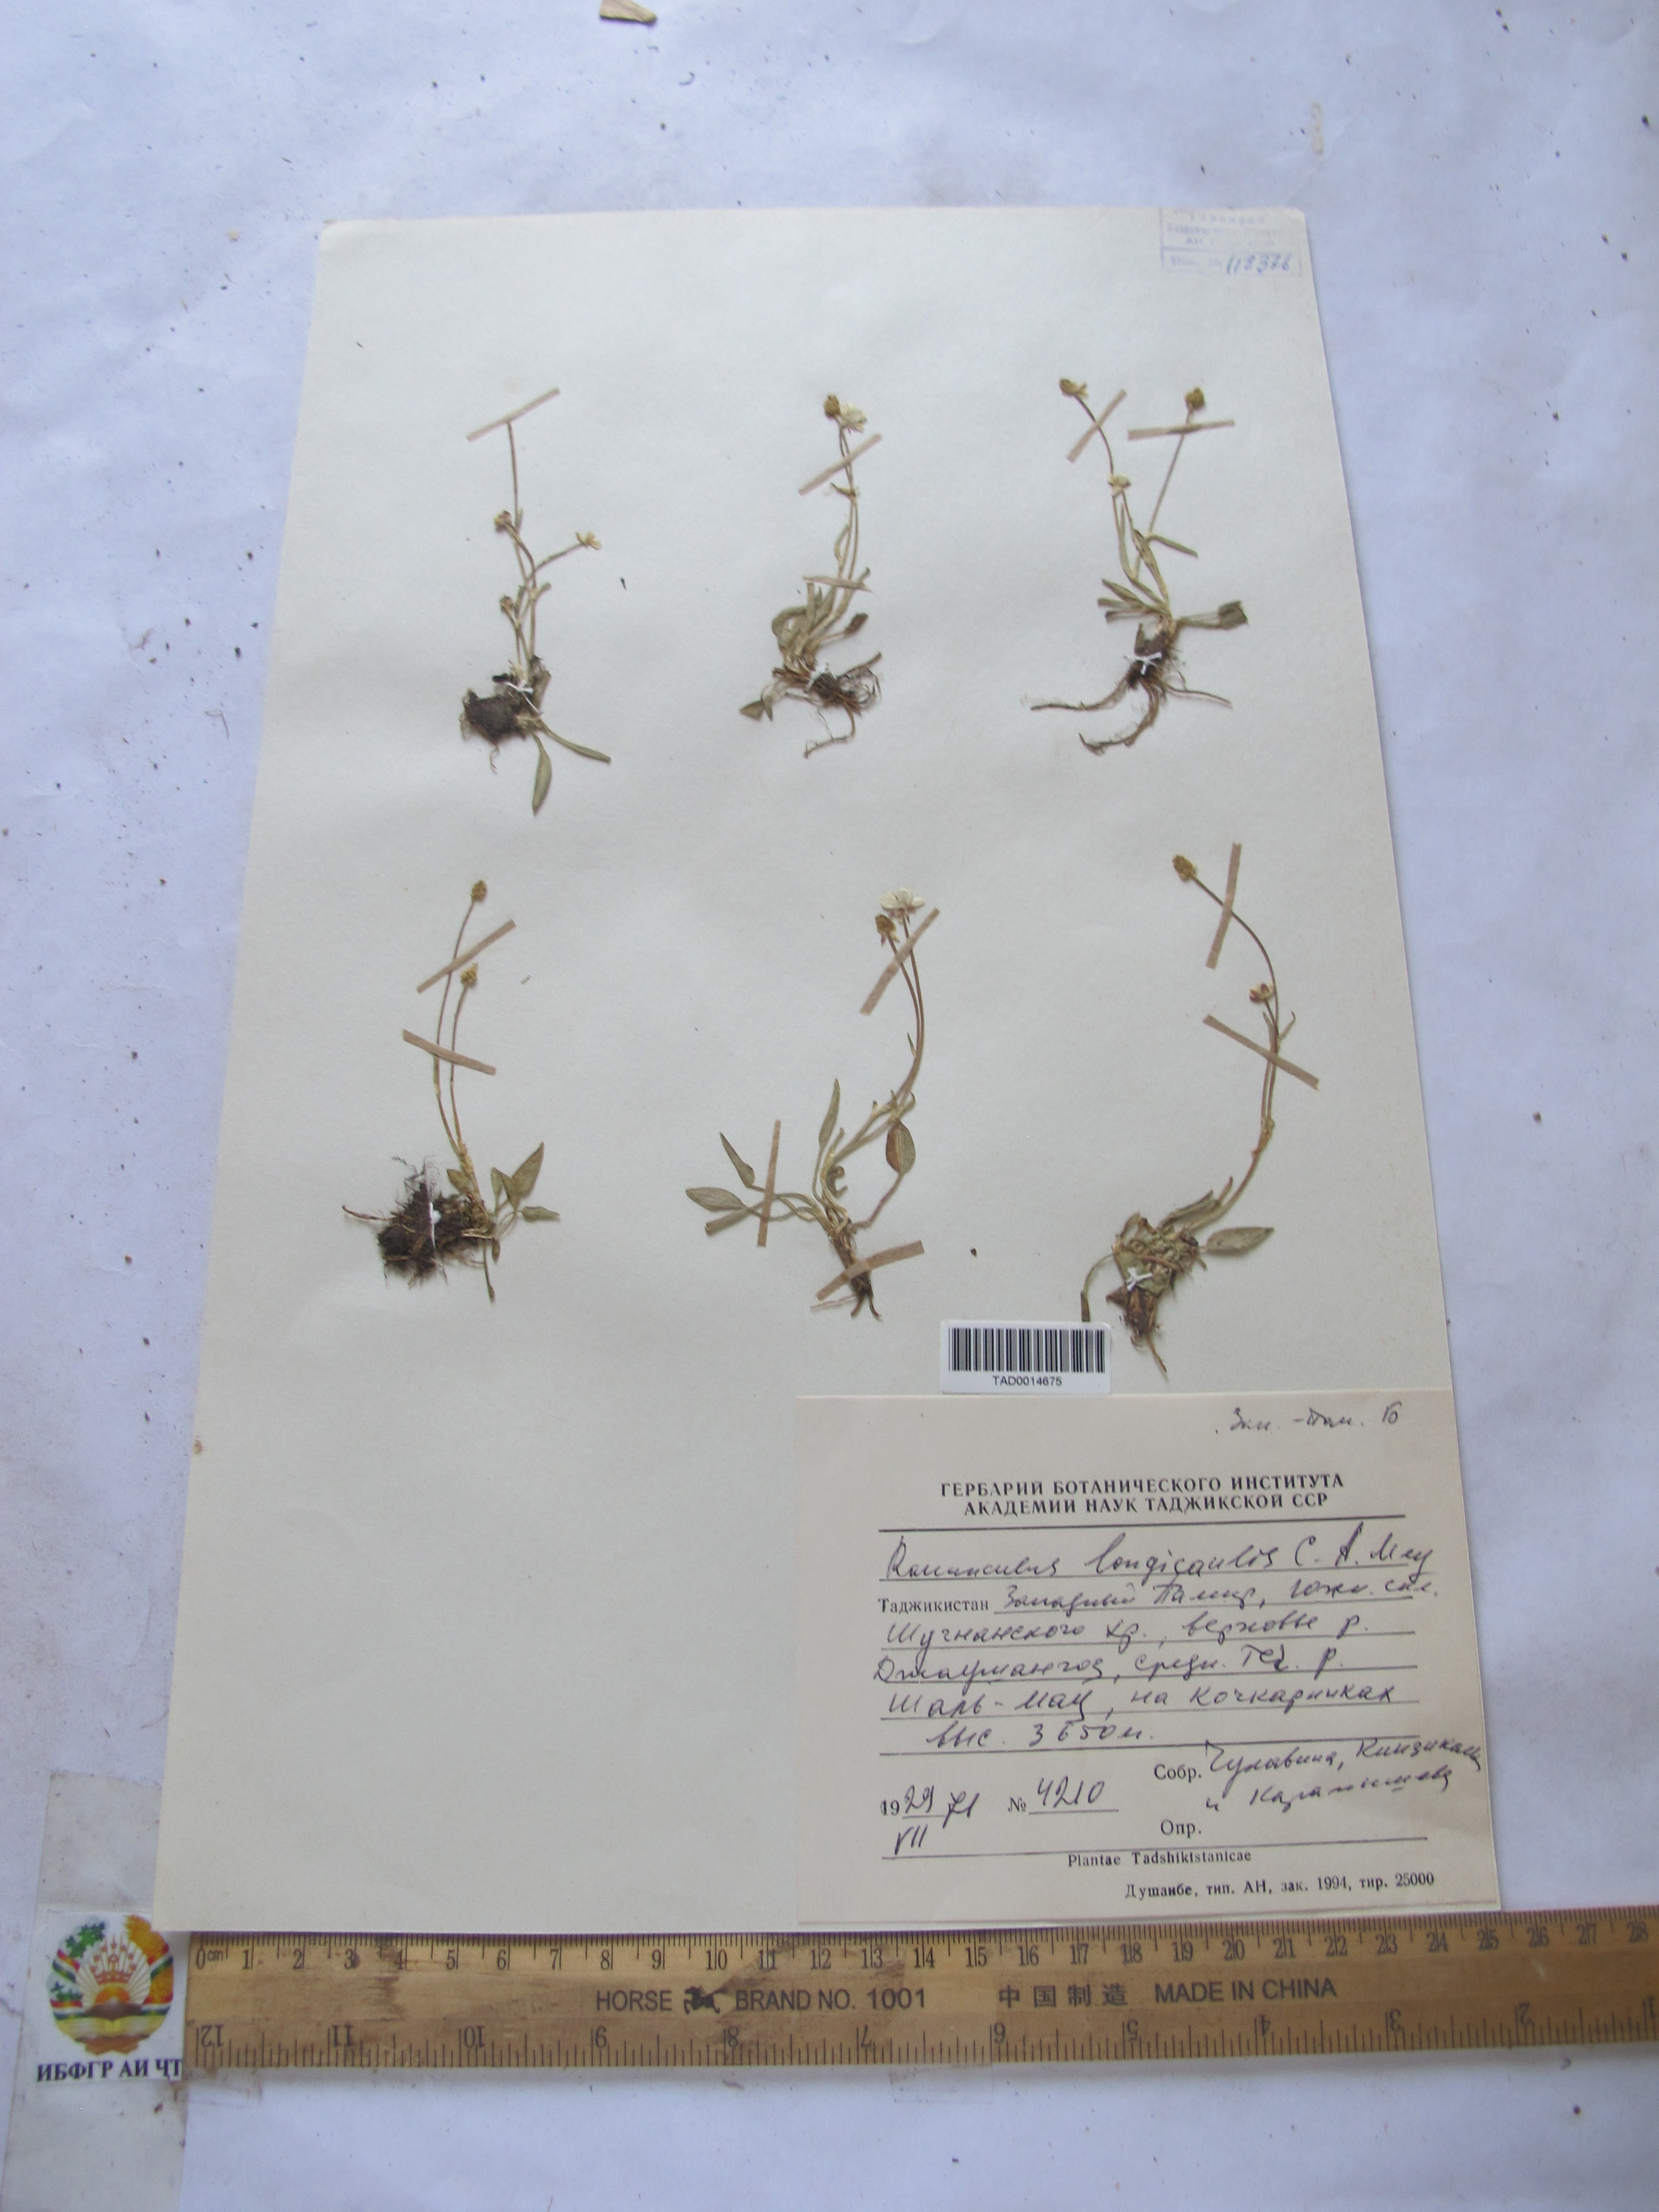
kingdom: Plantae
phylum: Tracheophyta
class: Magnoliopsida
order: Ranunculales
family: Ranunculaceae
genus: Ranunculus
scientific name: Ranunculus longicaulis
